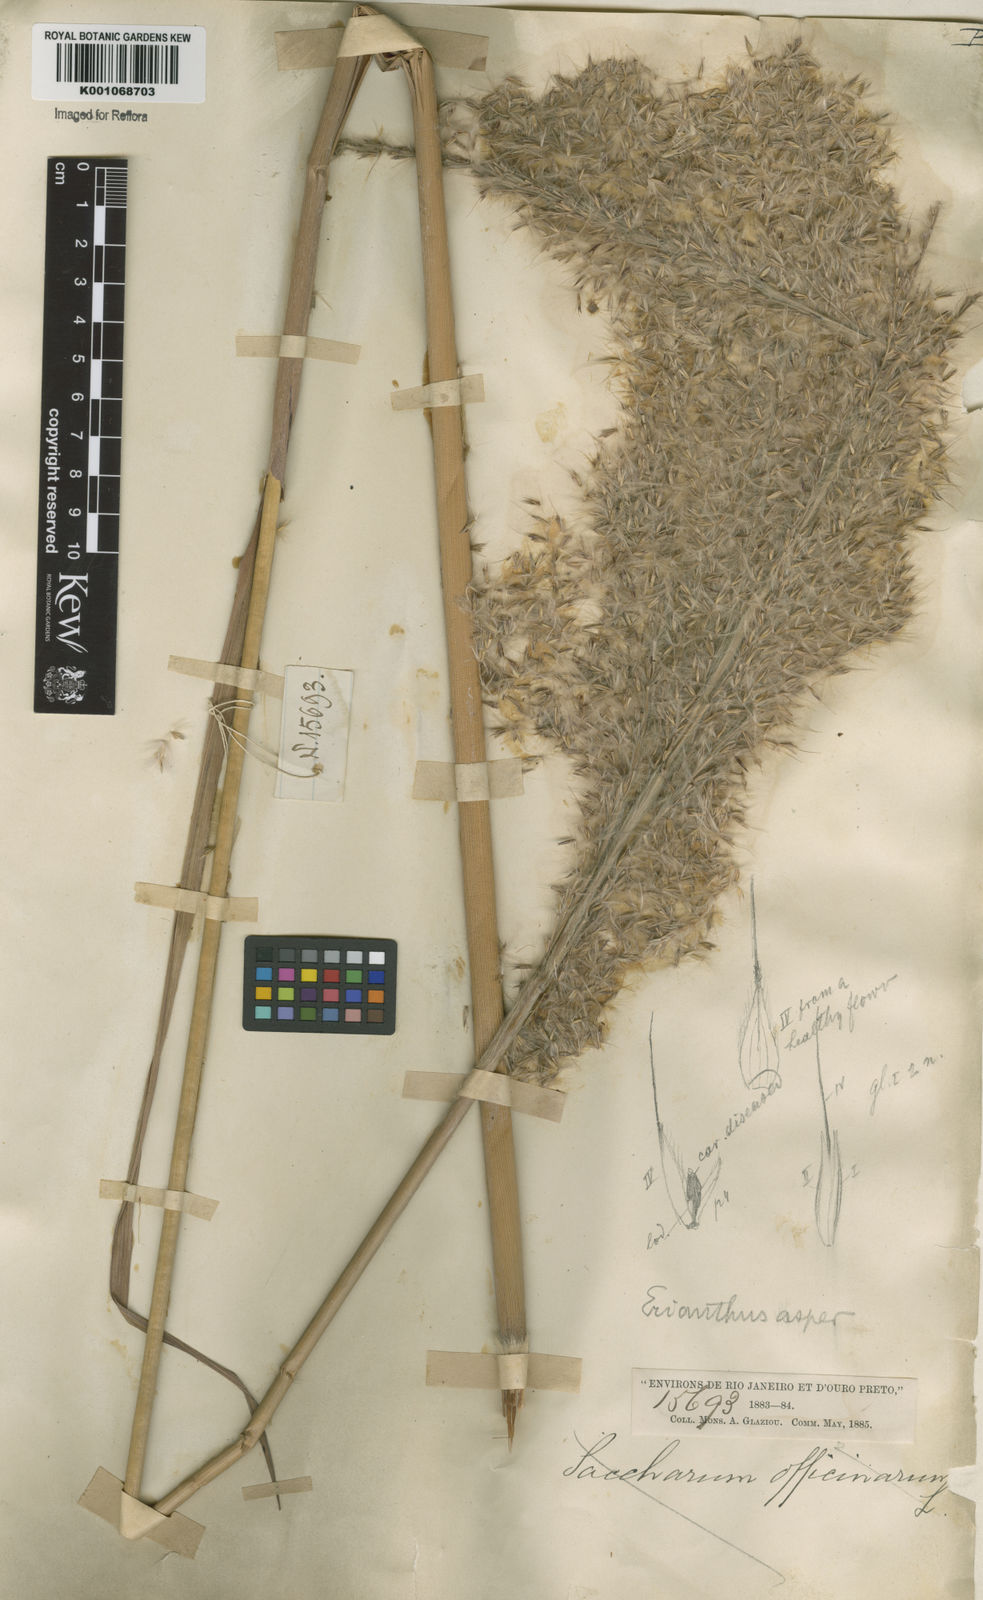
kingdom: Plantae
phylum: Tracheophyta
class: Liliopsida
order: Poales
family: Poaceae
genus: Erianthus
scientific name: Erianthus asper
